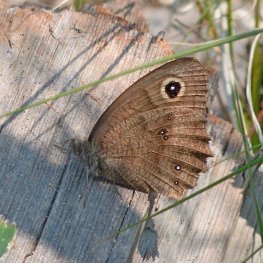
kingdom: Animalia
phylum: Arthropoda
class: Insecta
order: Lepidoptera
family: Nymphalidae
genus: Cercyonis
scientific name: Cercyonis pegala
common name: Common Wood-Nymph
